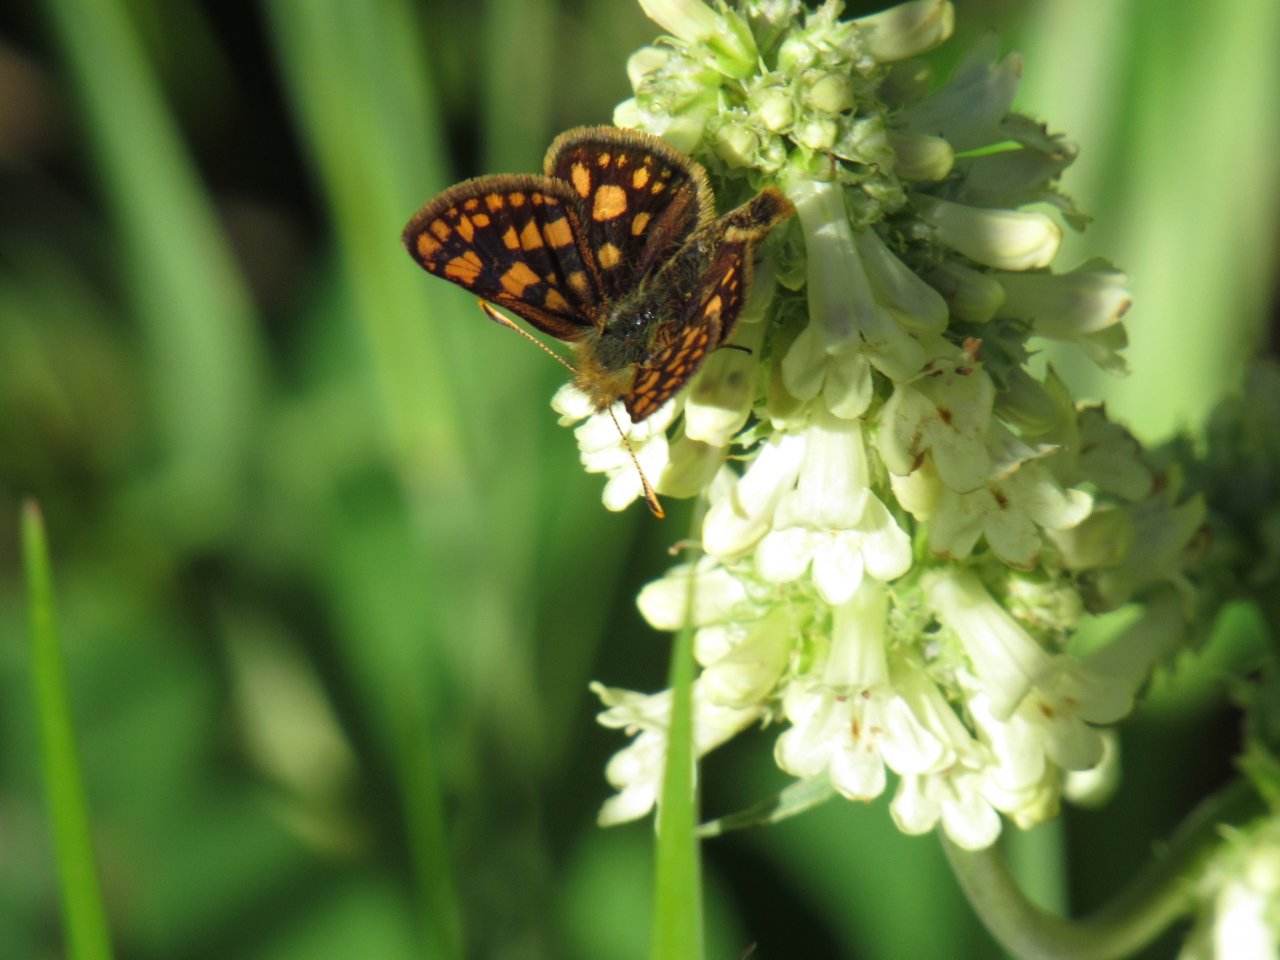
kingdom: Animalia
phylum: Arthropoda
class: Insecta
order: Lepidoptera
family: Hesperiidae
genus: Carterocephalus
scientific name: Carterocephalus palaemon
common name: Chequered Skipper
